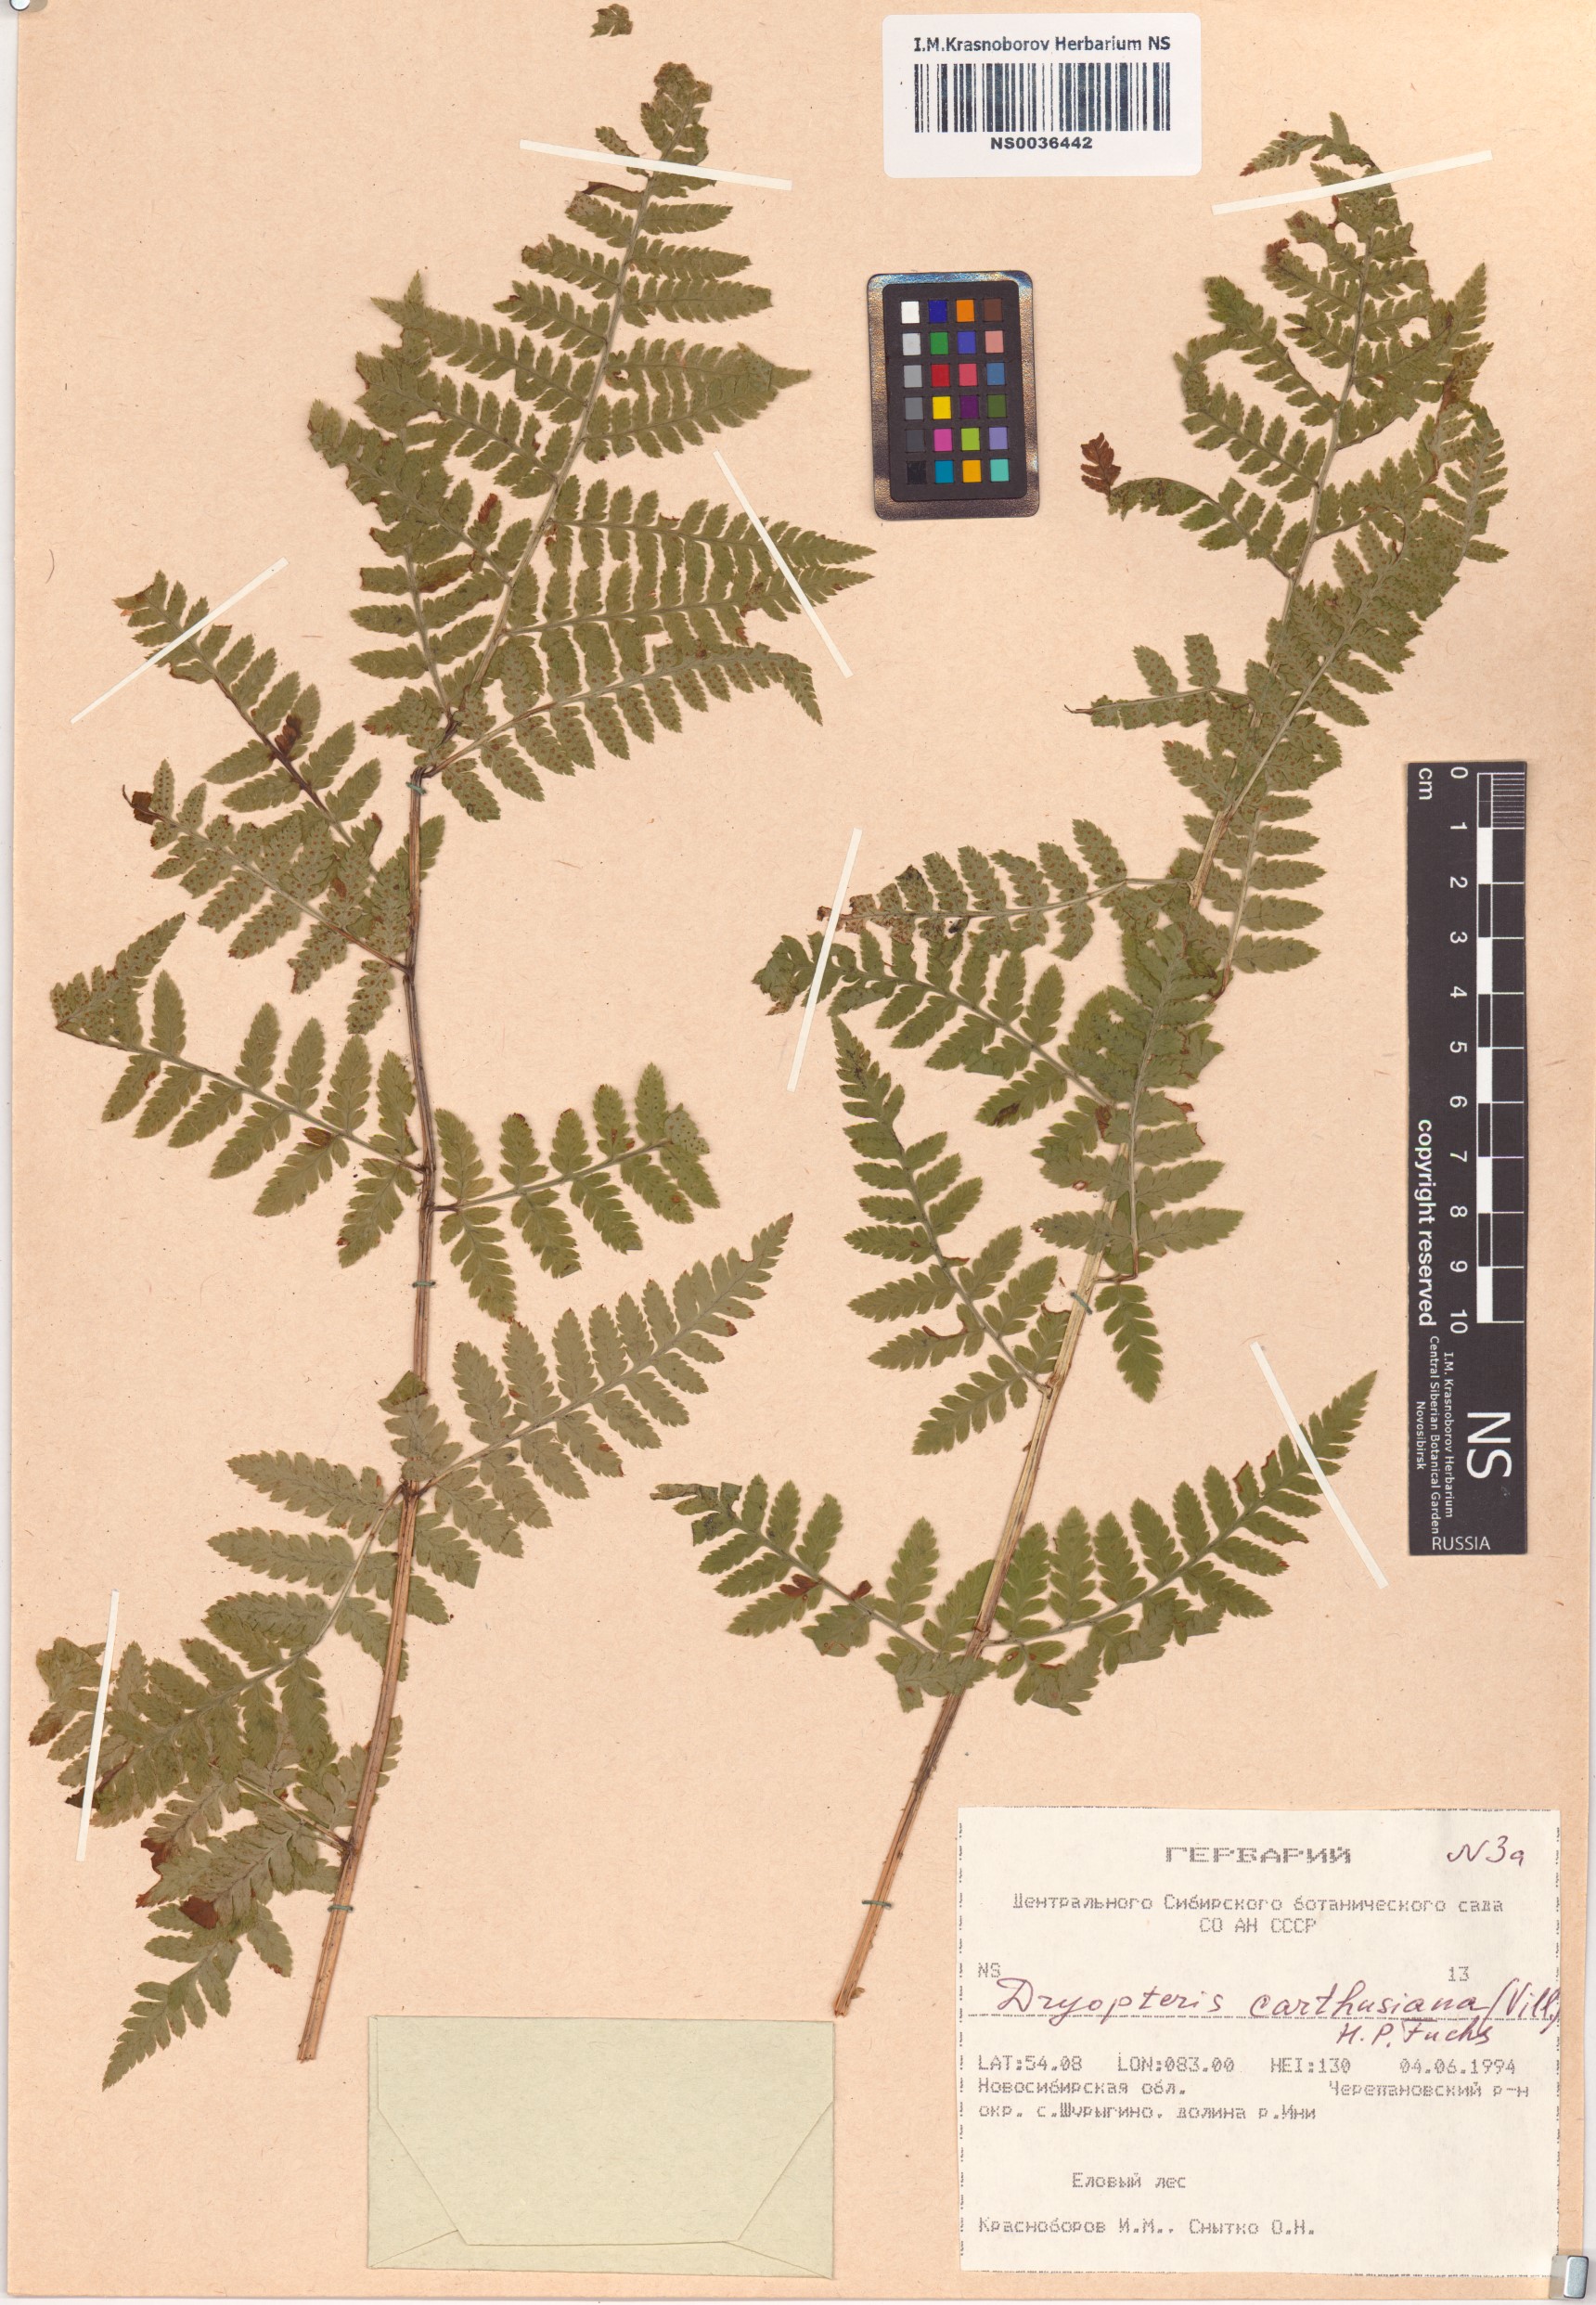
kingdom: Plantae
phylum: Tracheophyta
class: Polypodiopsida
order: Polypodiales
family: Dryopteridaceae
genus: Dryopteris
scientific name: Dryopteris carthusiana
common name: Narrow buckler-fern
